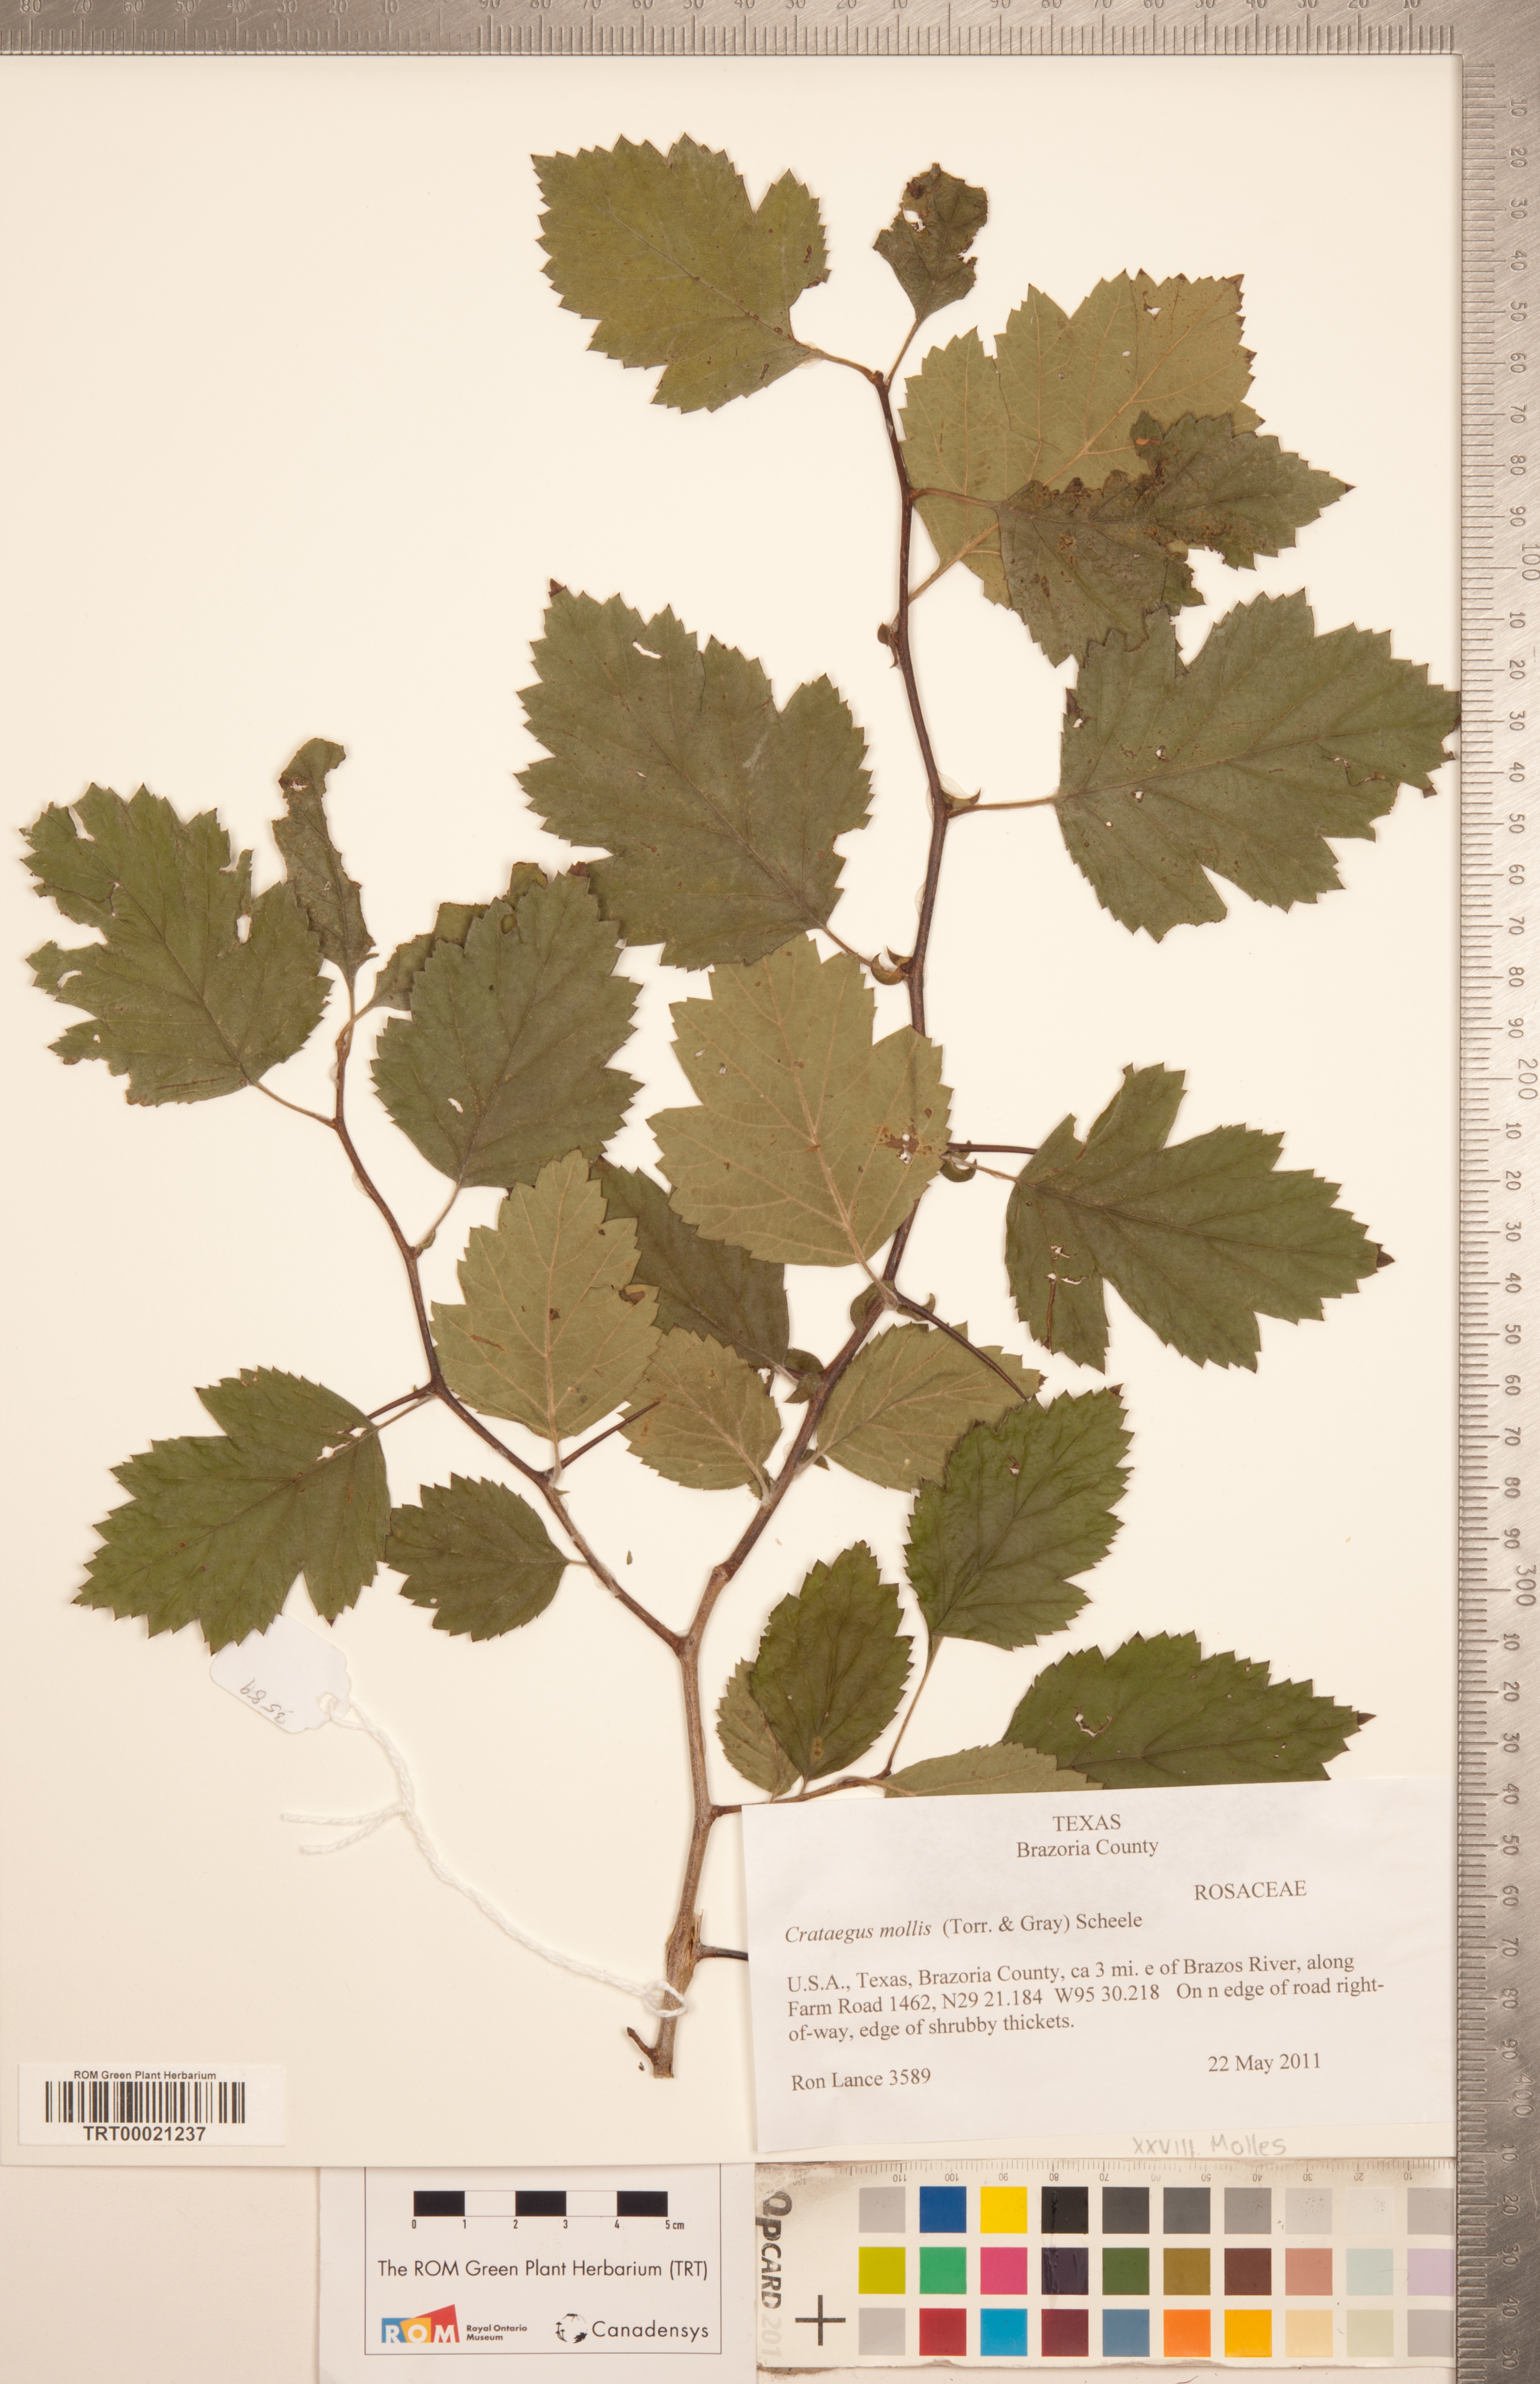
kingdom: Plantae
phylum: Tracheophyta
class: Magnoliopsida
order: Rosales
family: Rosaceae
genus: Crataegus
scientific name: Crataegus mollis
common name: Downy hawthorn
